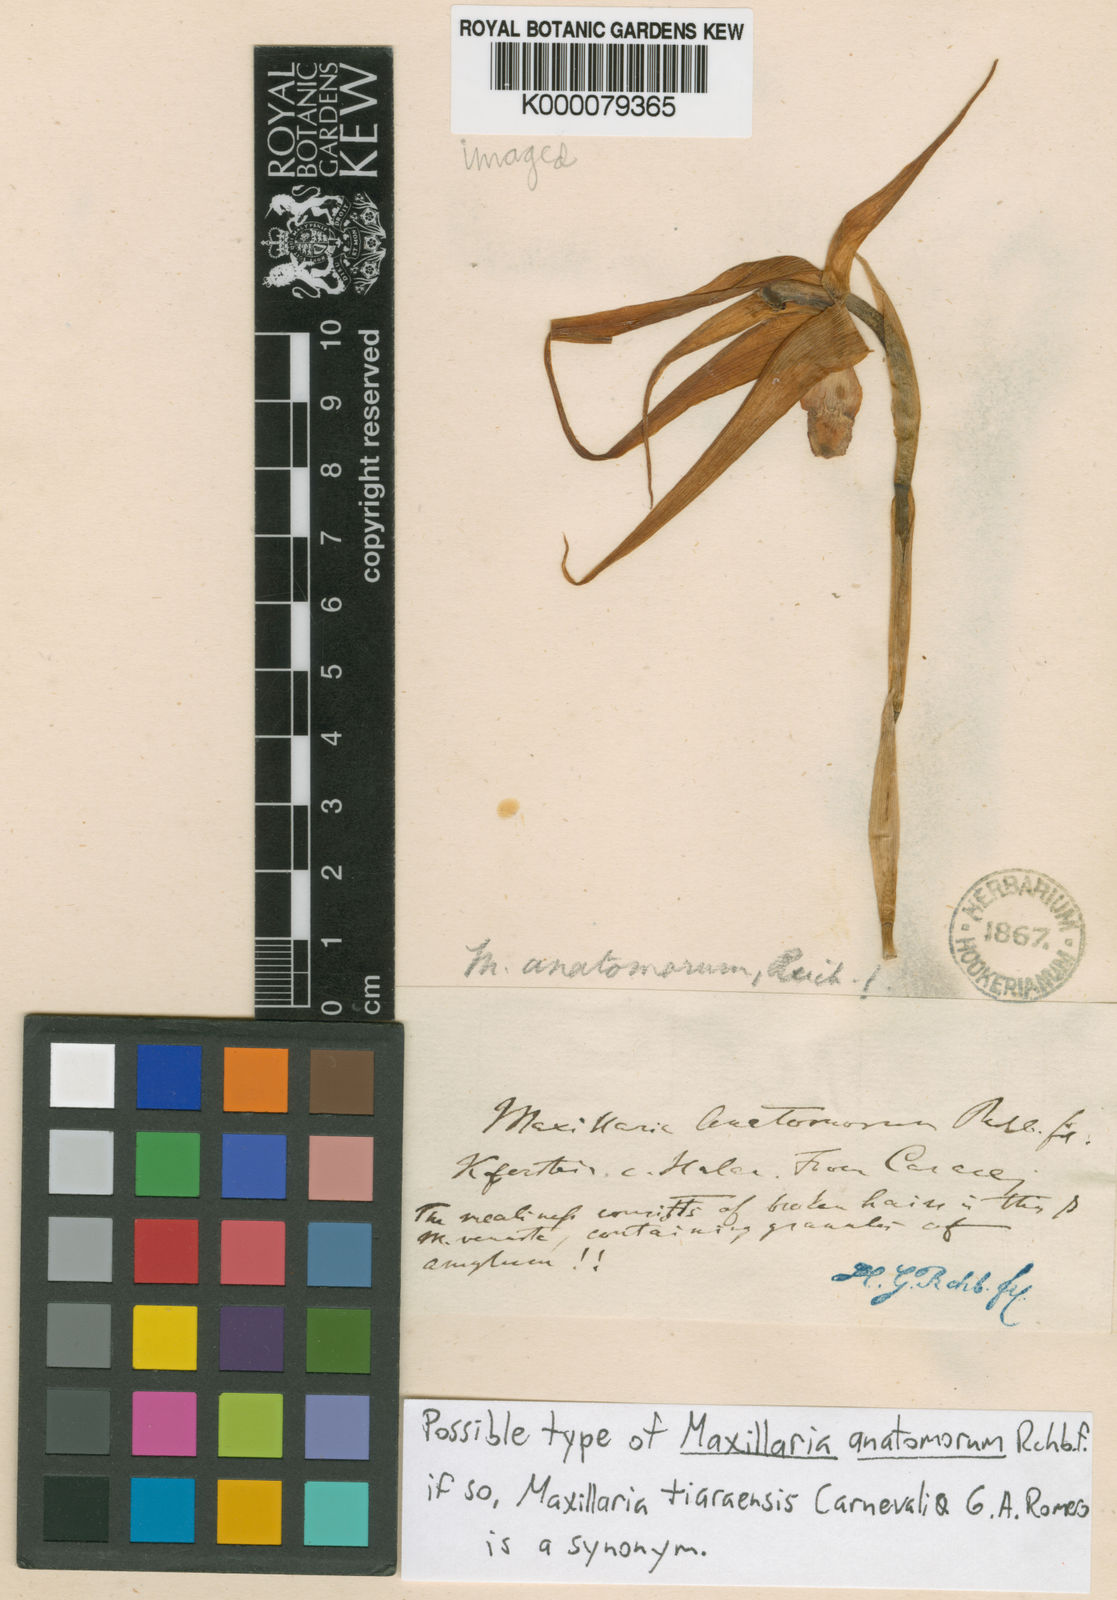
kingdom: Plantae
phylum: Tracheophyta
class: Liliopsida
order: Asparagales
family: Orchidaceae
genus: Maxillaria
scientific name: Maxillaria anatomorum
